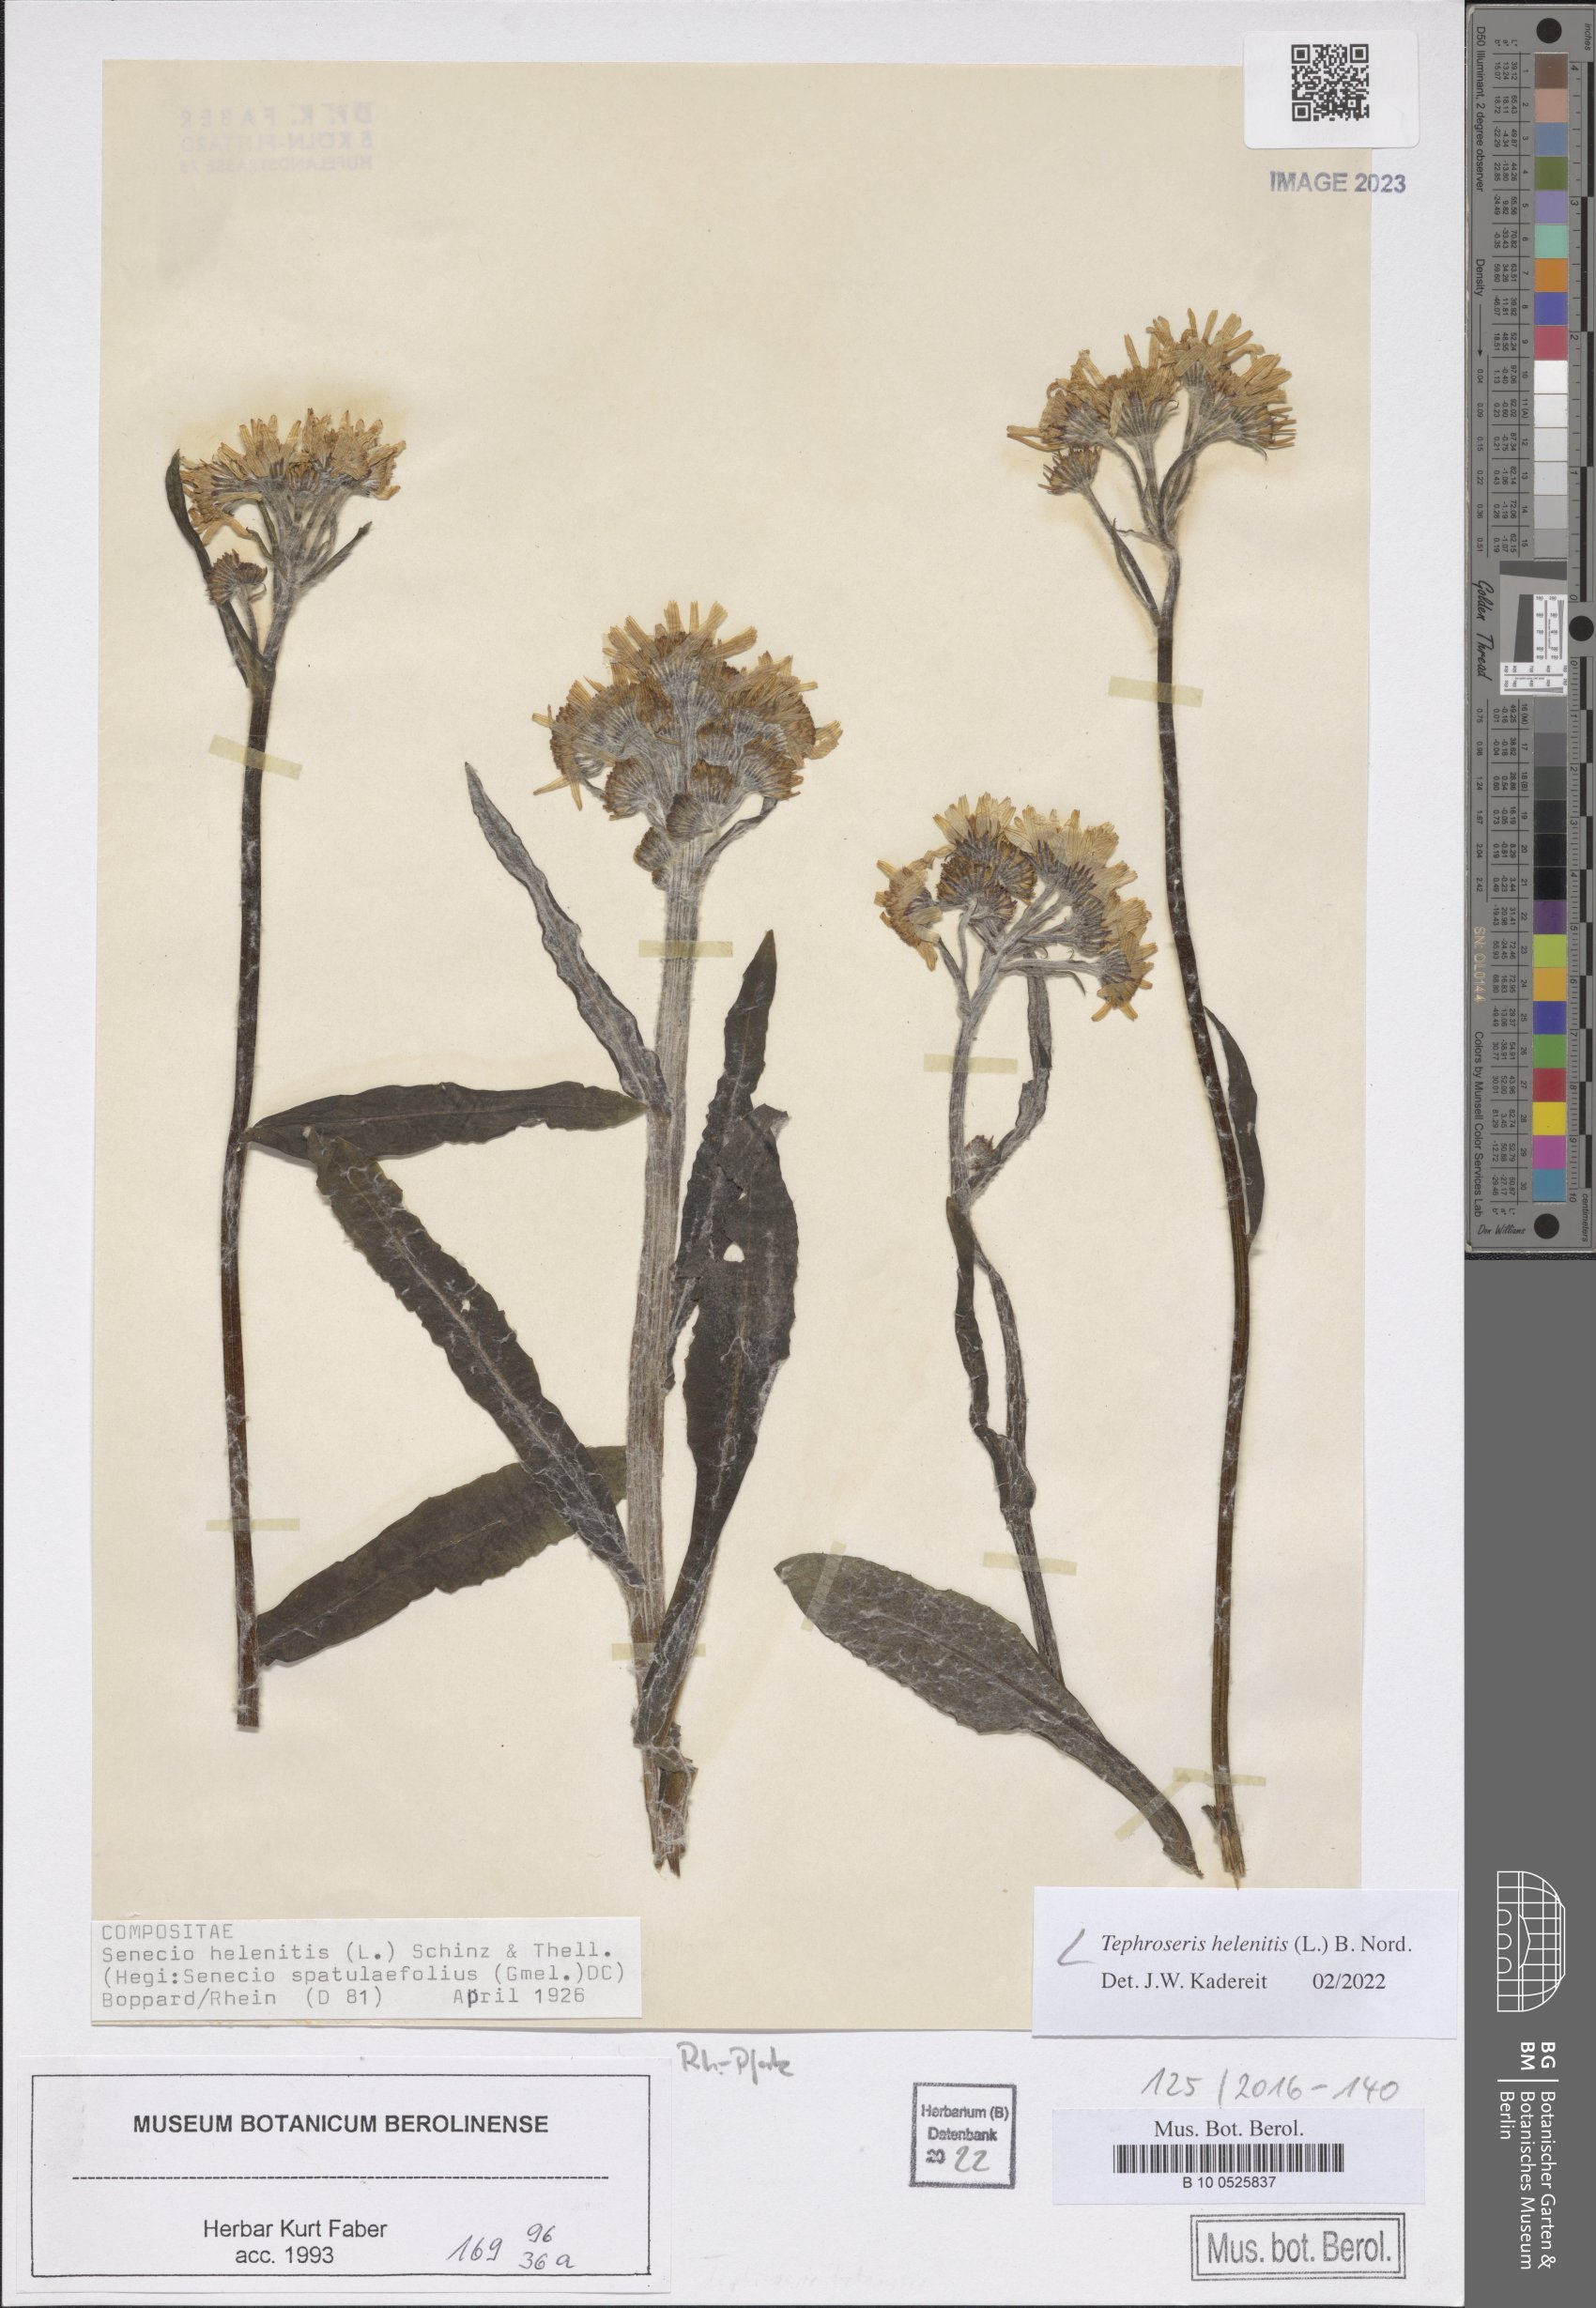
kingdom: Plantae
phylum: Tracheophyta
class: Magnoliopsida
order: Asterales
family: Asteraceae
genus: Tephroseris
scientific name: Tephroseris helenitis
